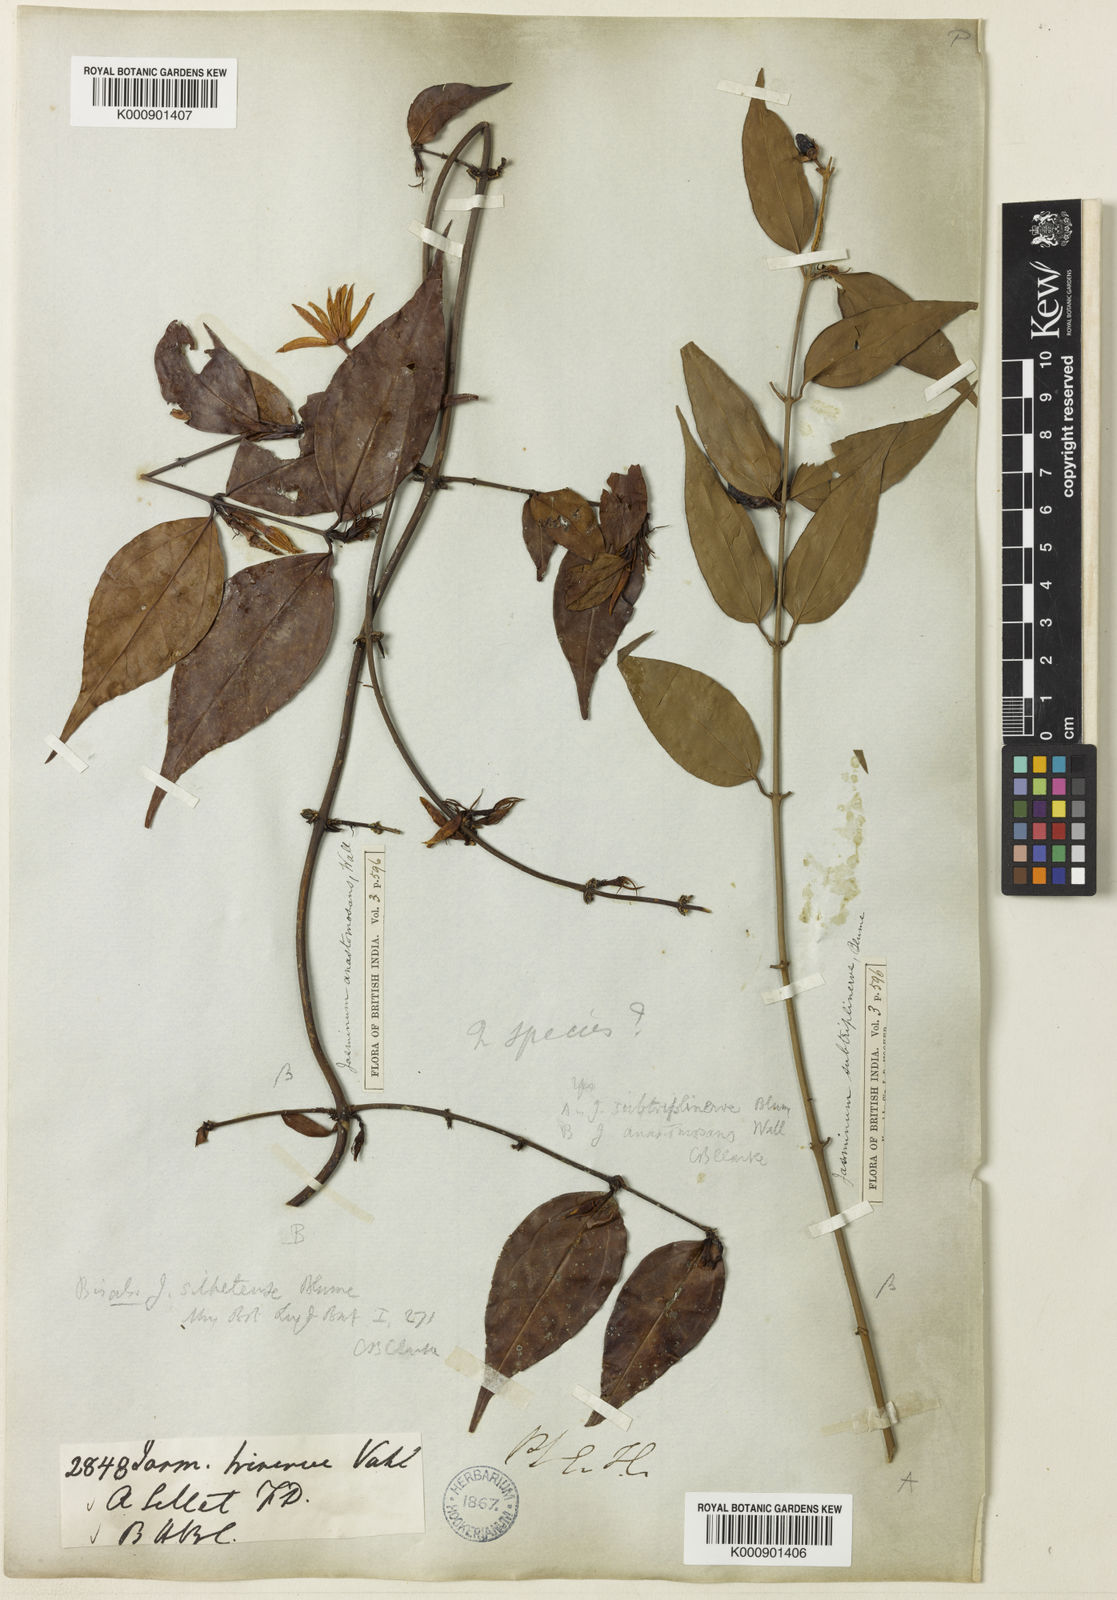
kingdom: Plantae
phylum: Tracheophyta
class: Magnoliopsida
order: Lamiales
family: Oleaceae
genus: Jasminum
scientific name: Jasminum nervosum
